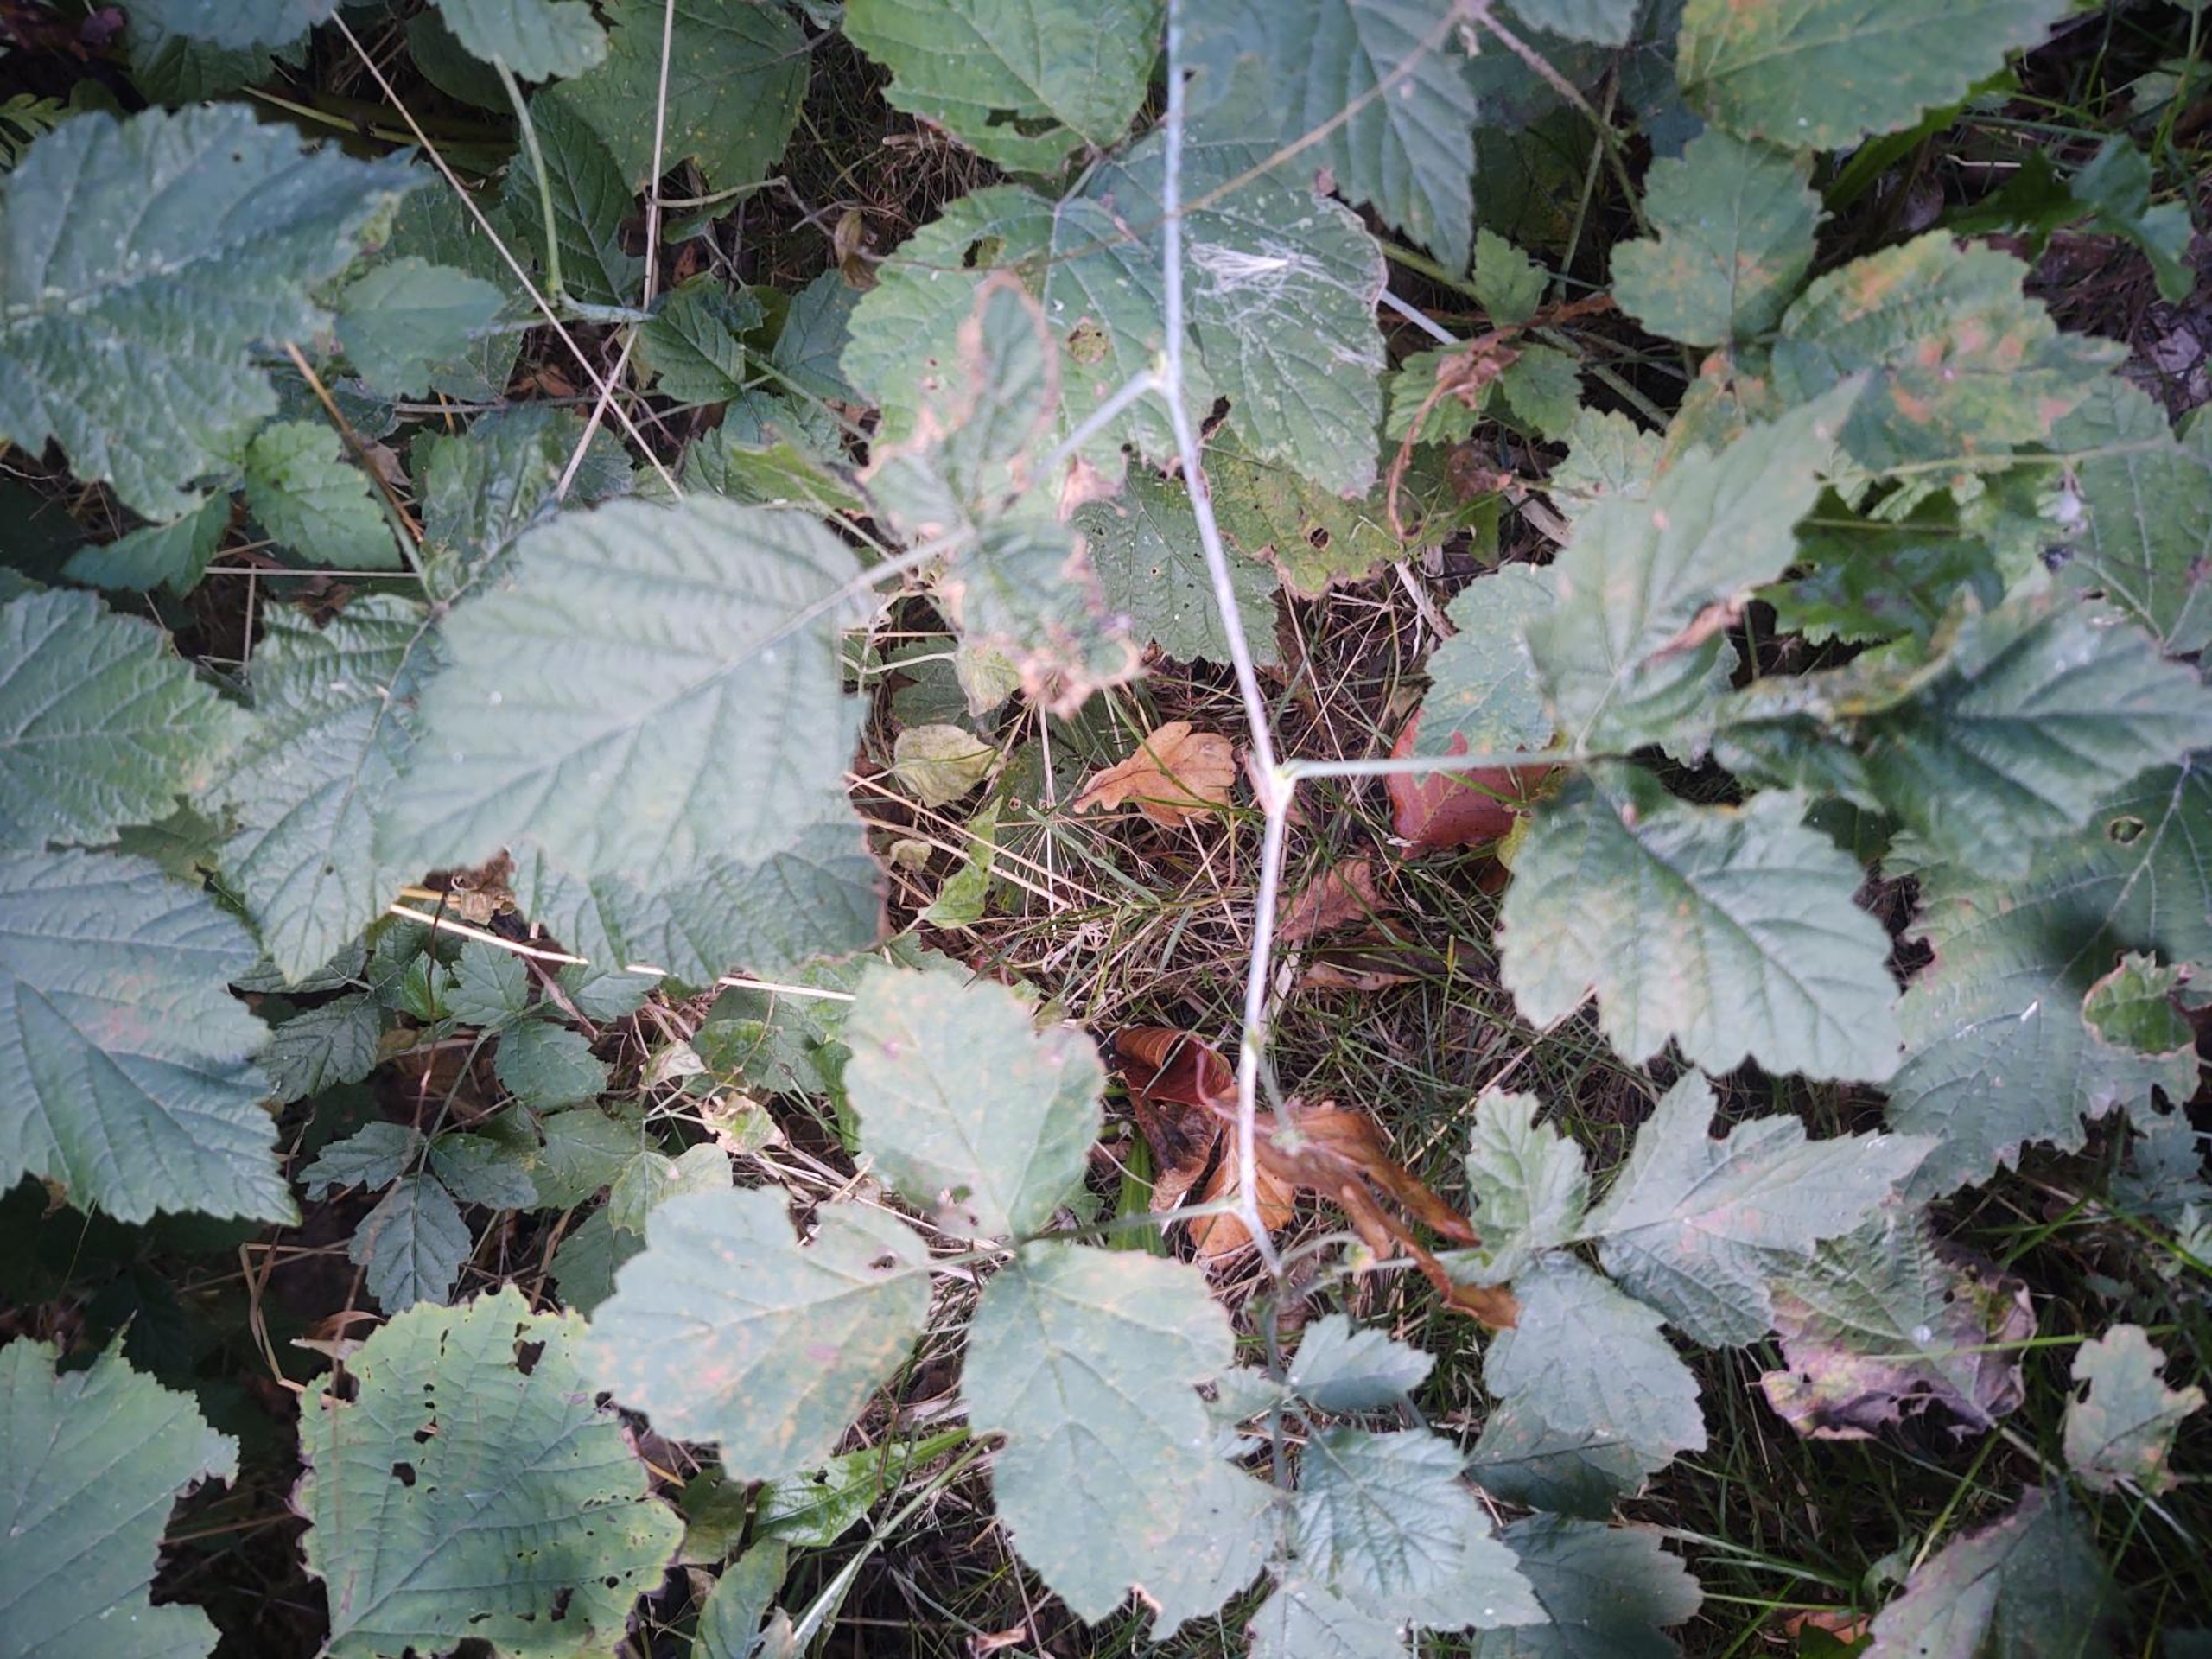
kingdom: Plantae
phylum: Tracheophyta
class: Magnoliopsida
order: Rosales
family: Rosaceae
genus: Rubus
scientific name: Rubus caesius
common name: Korbær
